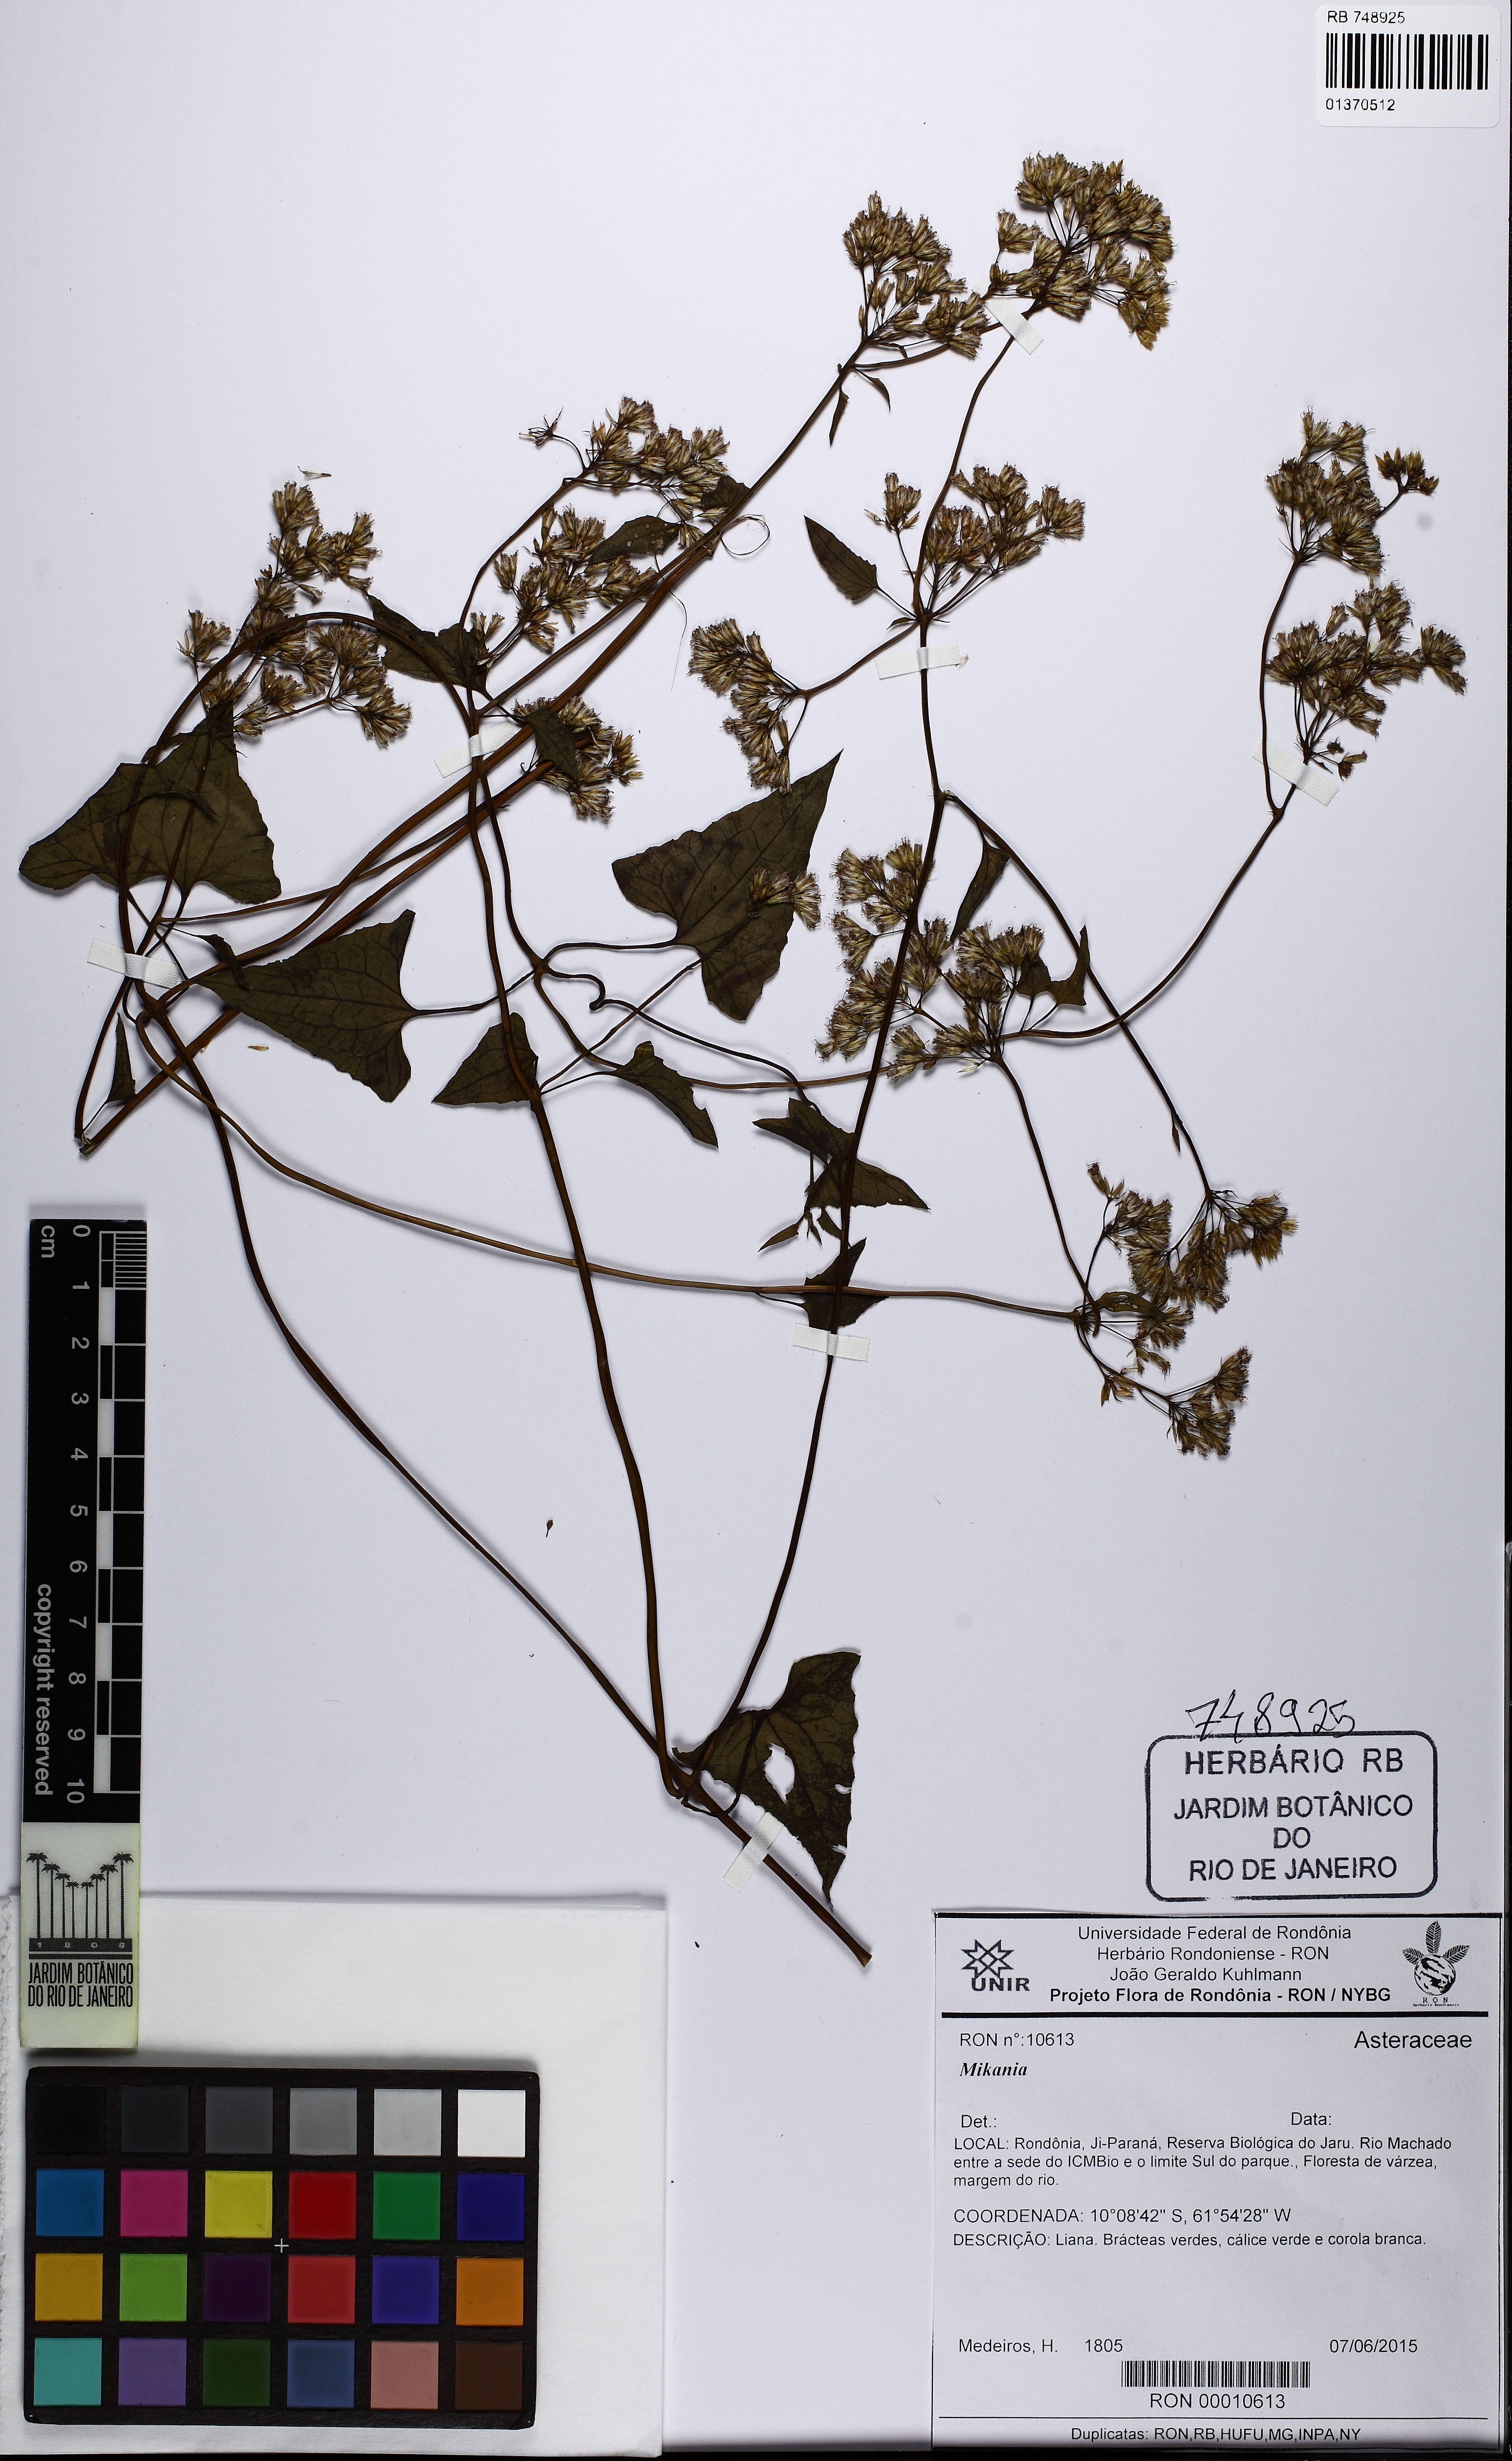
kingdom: Plantae
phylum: Tracheophyta
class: Magnoliopsida
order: Asterales
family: Asteraceae
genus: Mikania
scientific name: Mikania
